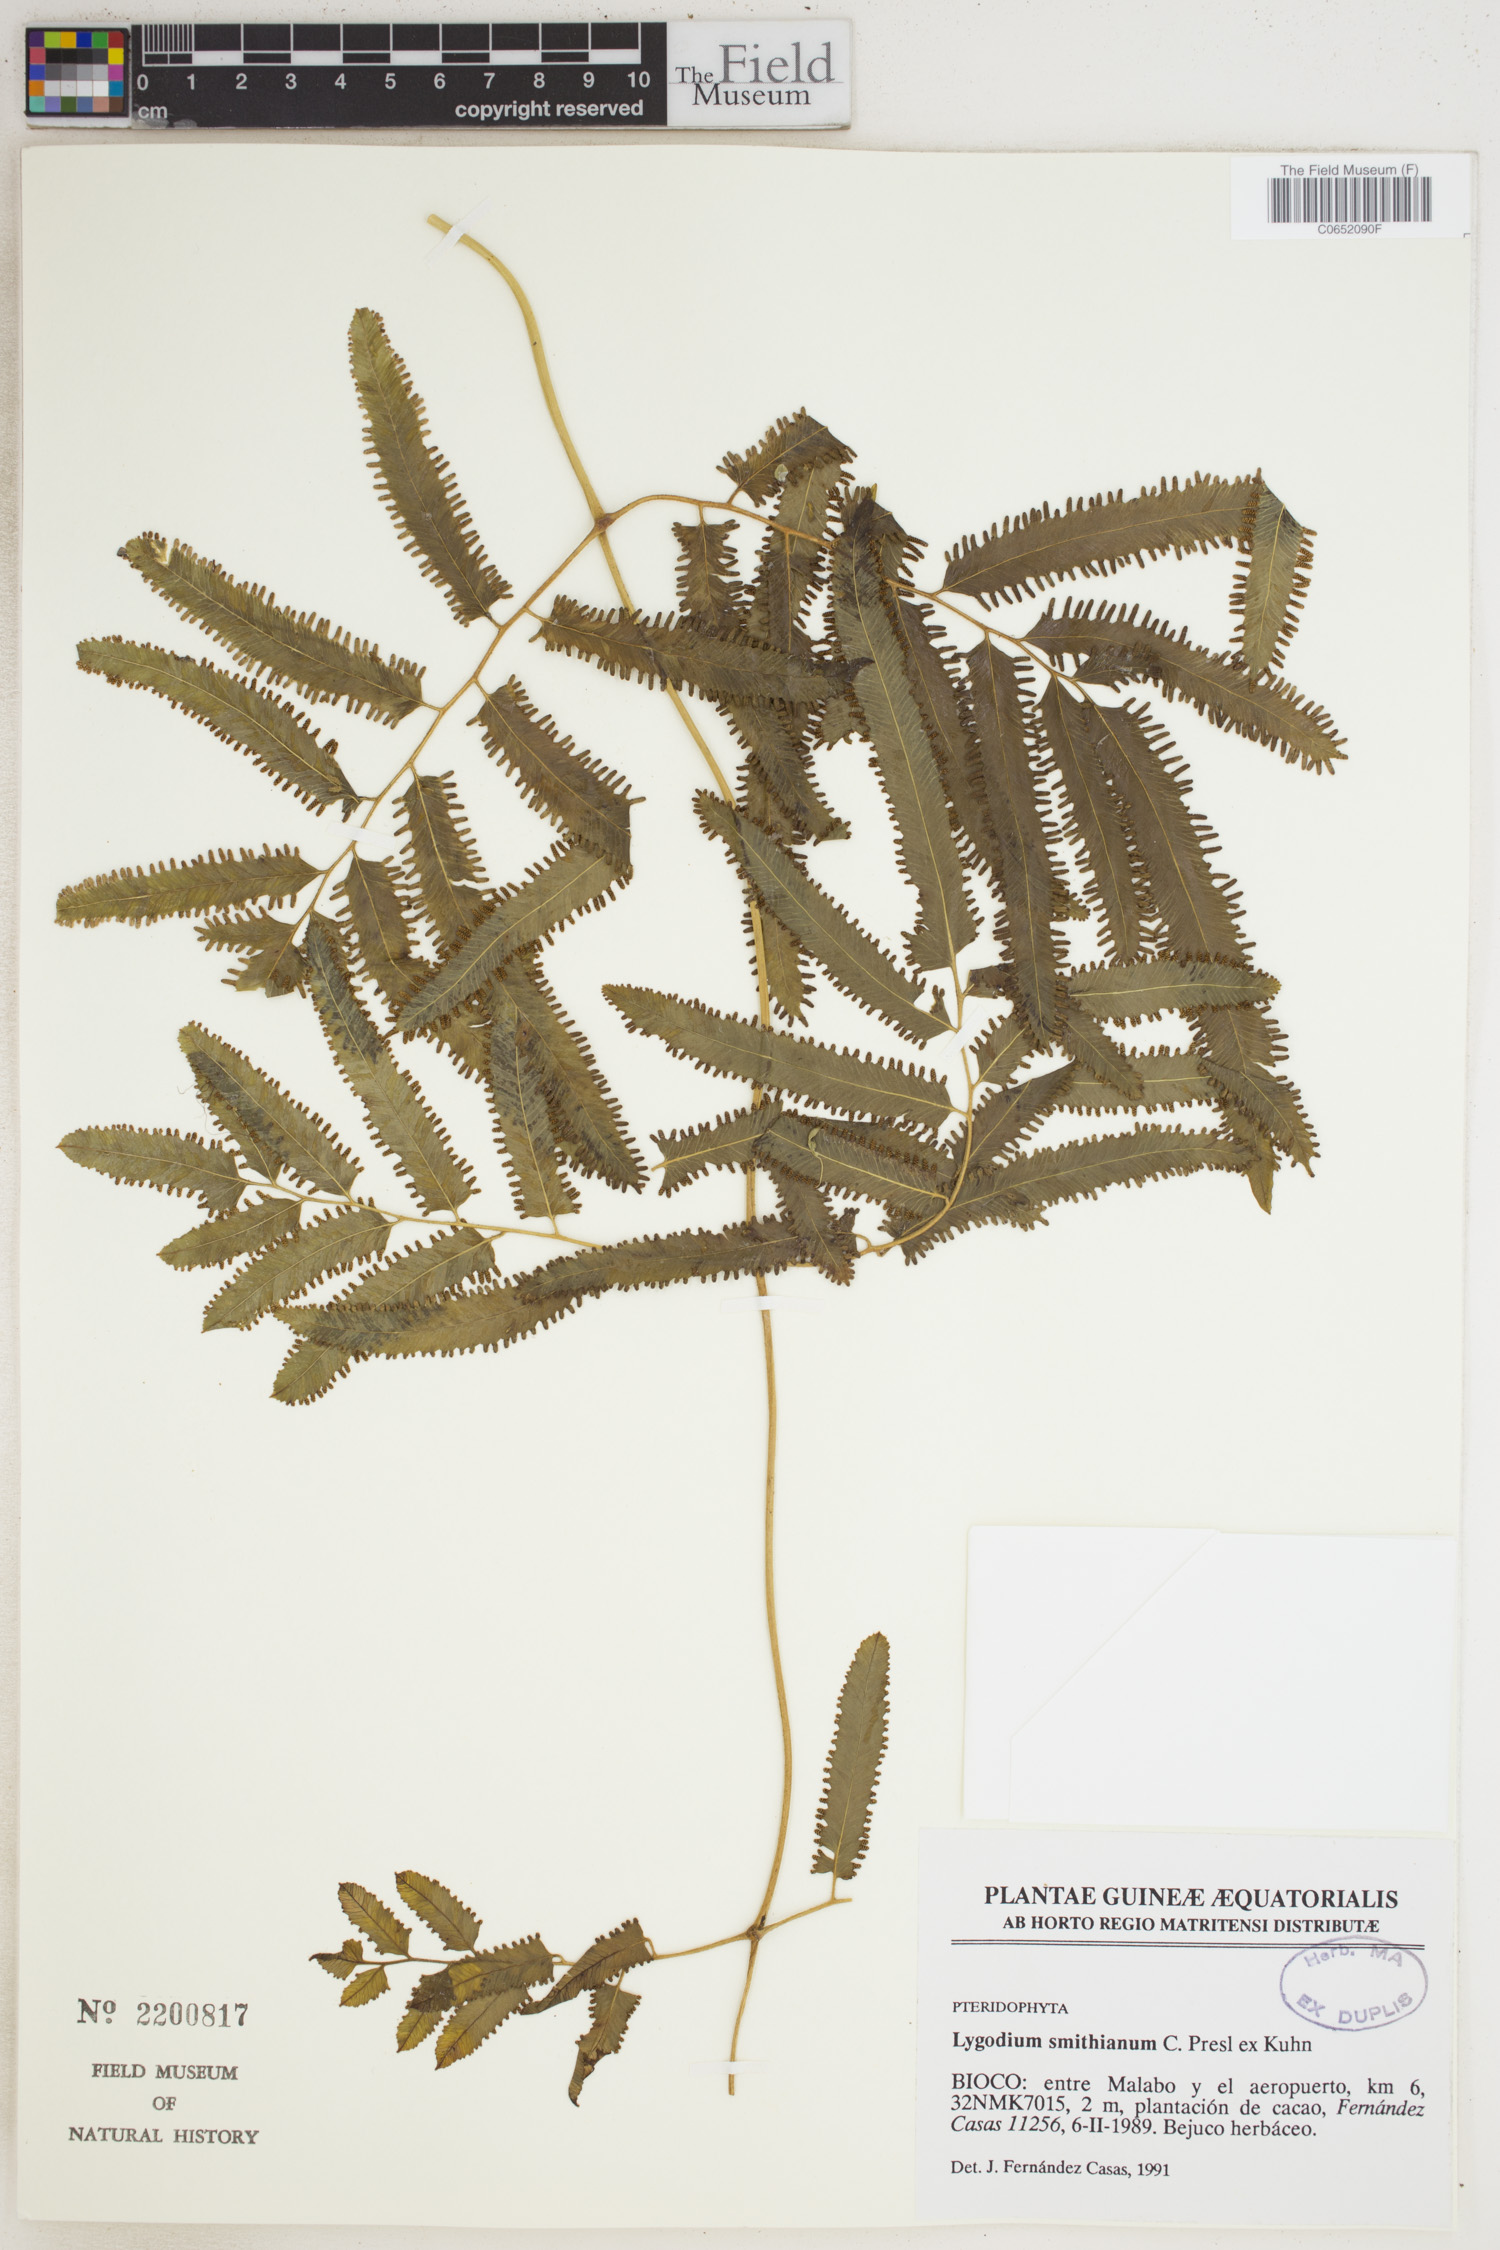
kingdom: Plantae
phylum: Tracheophyta
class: Polypodiopsida
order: Schizaeales
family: Lygodiaceae
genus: Lygodium
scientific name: Lygodium smithianum
